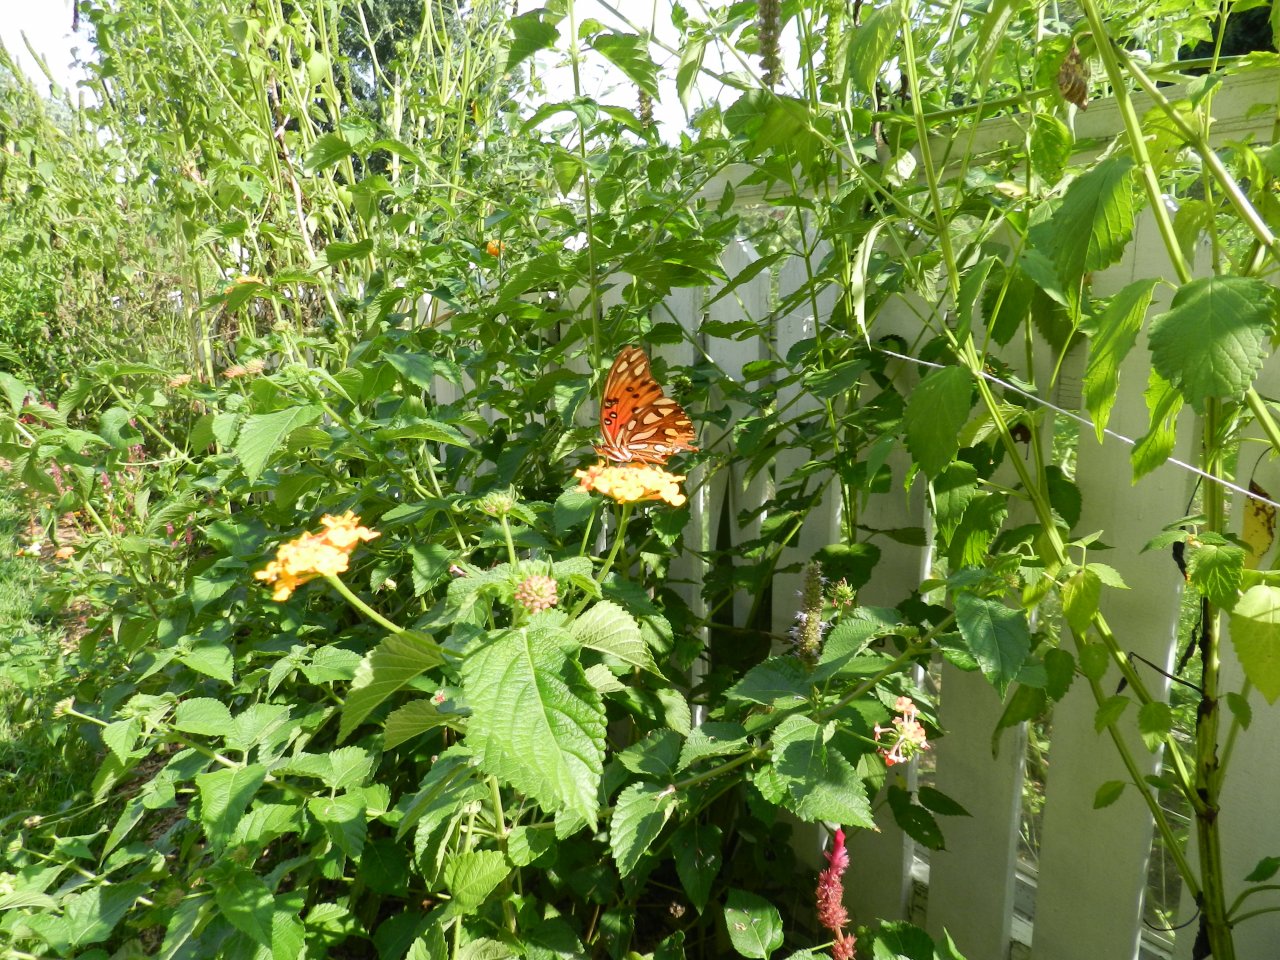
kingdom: Animalia
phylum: Arthropoda
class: Insecta
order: Lepidoptera
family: Nymphalidae
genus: Dione
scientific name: Dione vanillae
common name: Gulf Fritillary
